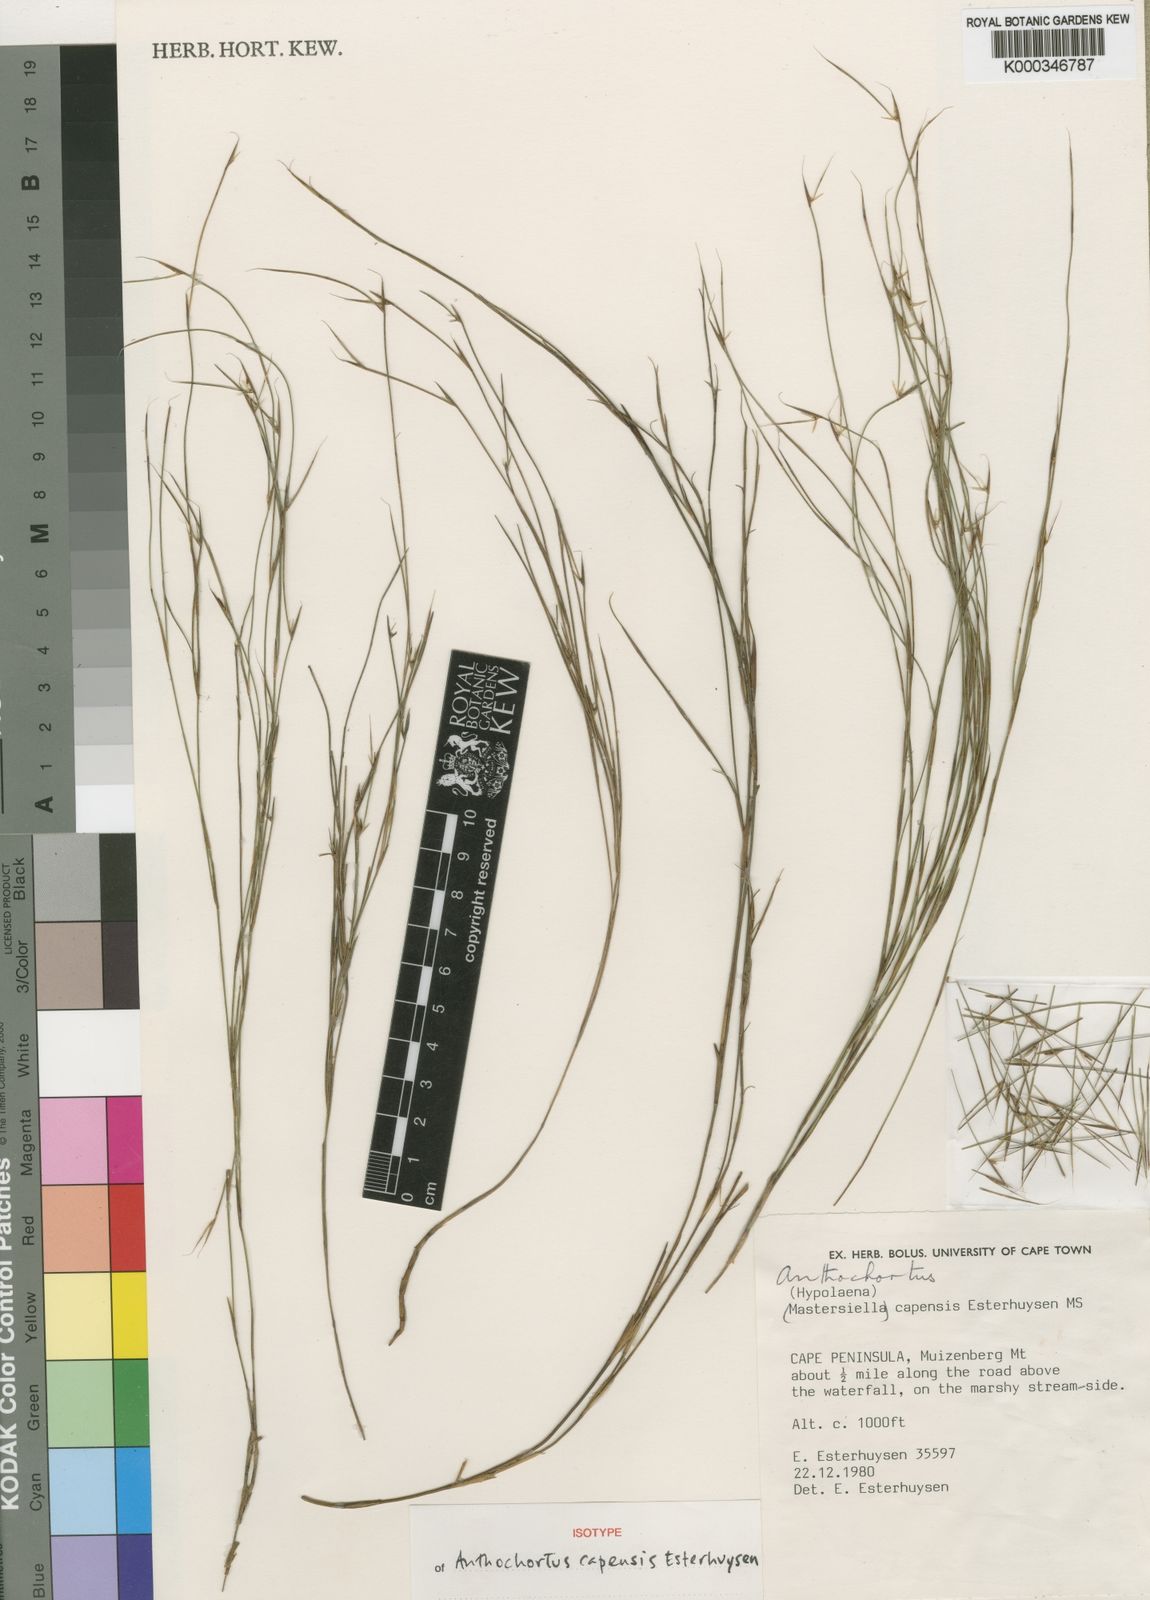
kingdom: Plantae
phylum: Tracheophyta
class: Liliopsida
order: Poales
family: Restionaceae
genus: Anthochortus
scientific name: Anthochortus capensis
